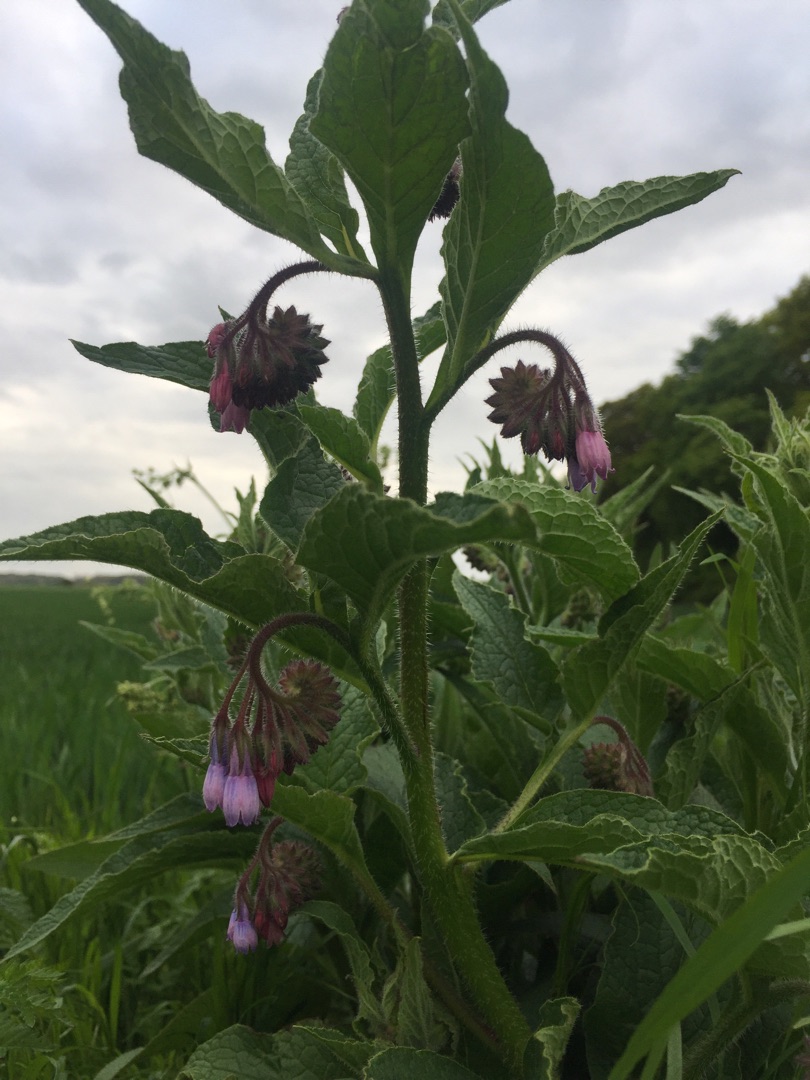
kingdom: Plantae
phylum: Tracheophyta
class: Magnoliopsida
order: Boraginales
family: Boraginaceae
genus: Symphytum
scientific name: Symphytum uplandicum
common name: Foder-kulsukker
